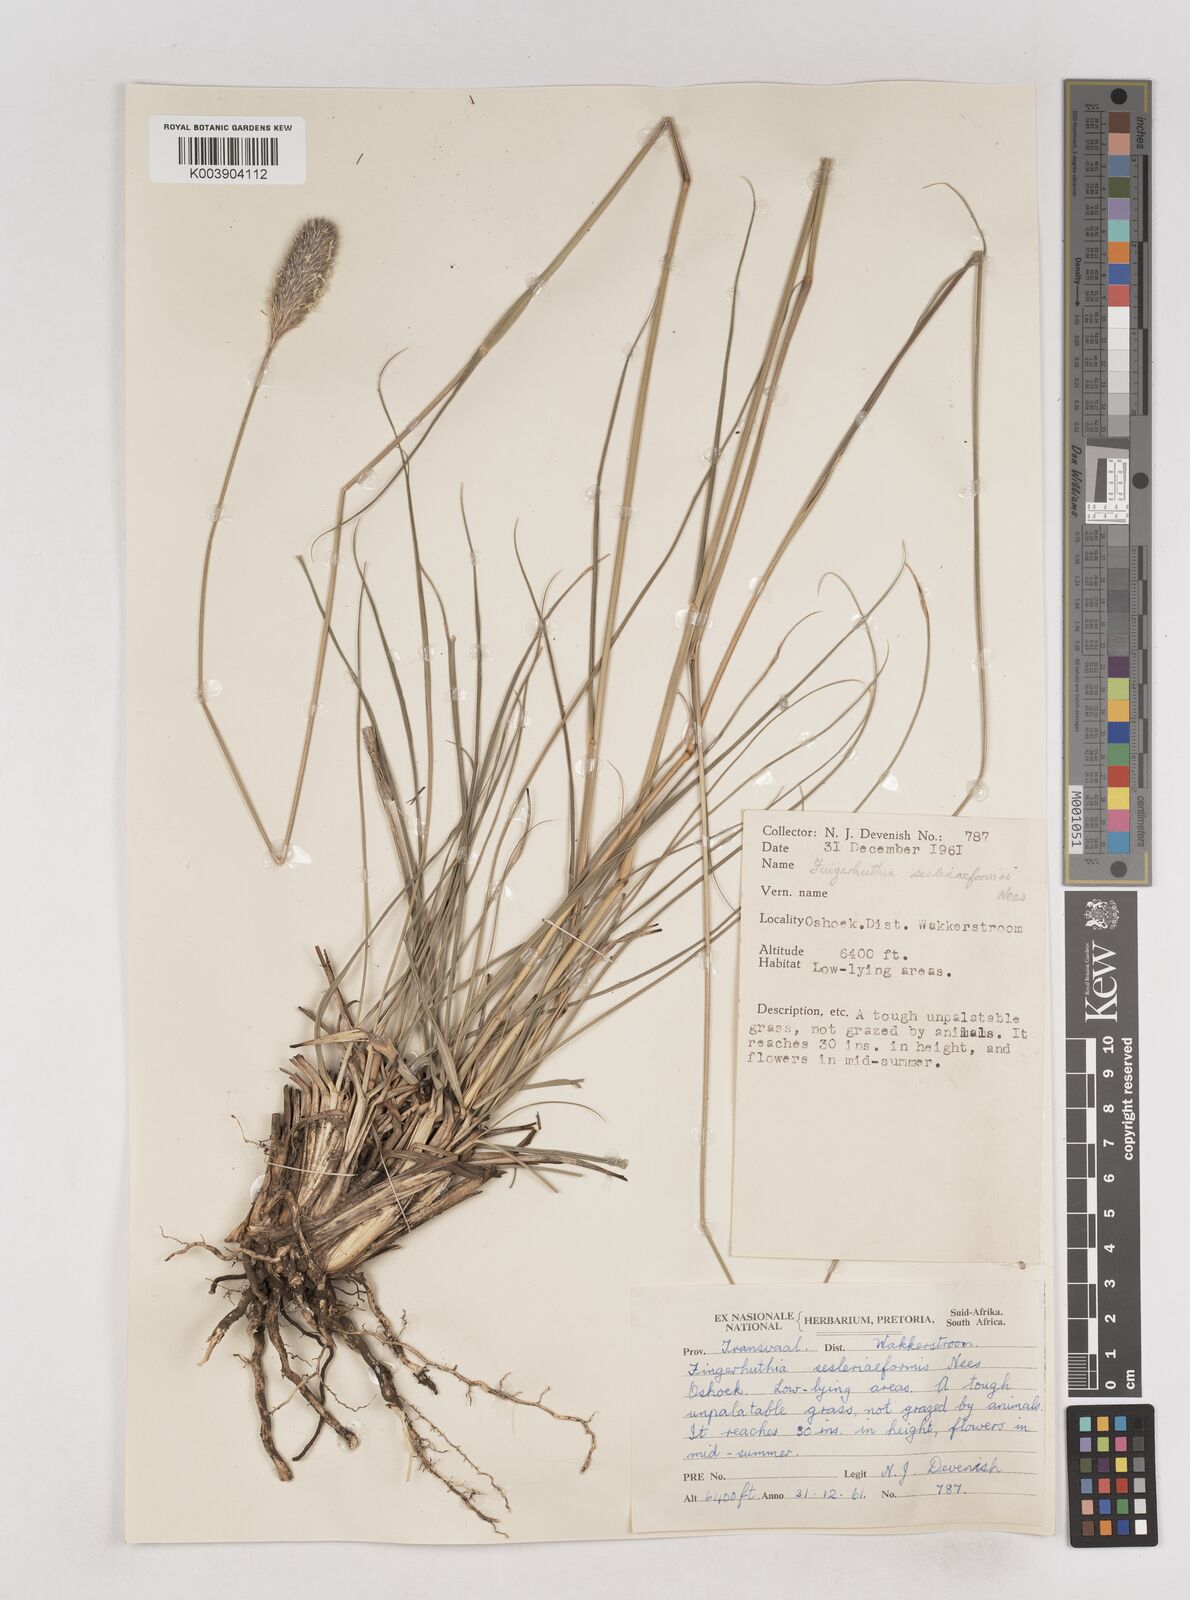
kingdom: Plantae
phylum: Tracheophyta
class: Liliopsida
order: Poales
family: Poaceae
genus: Fingerhuthia
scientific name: Fingerhuthia sesleriiformis
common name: Thimble grass
